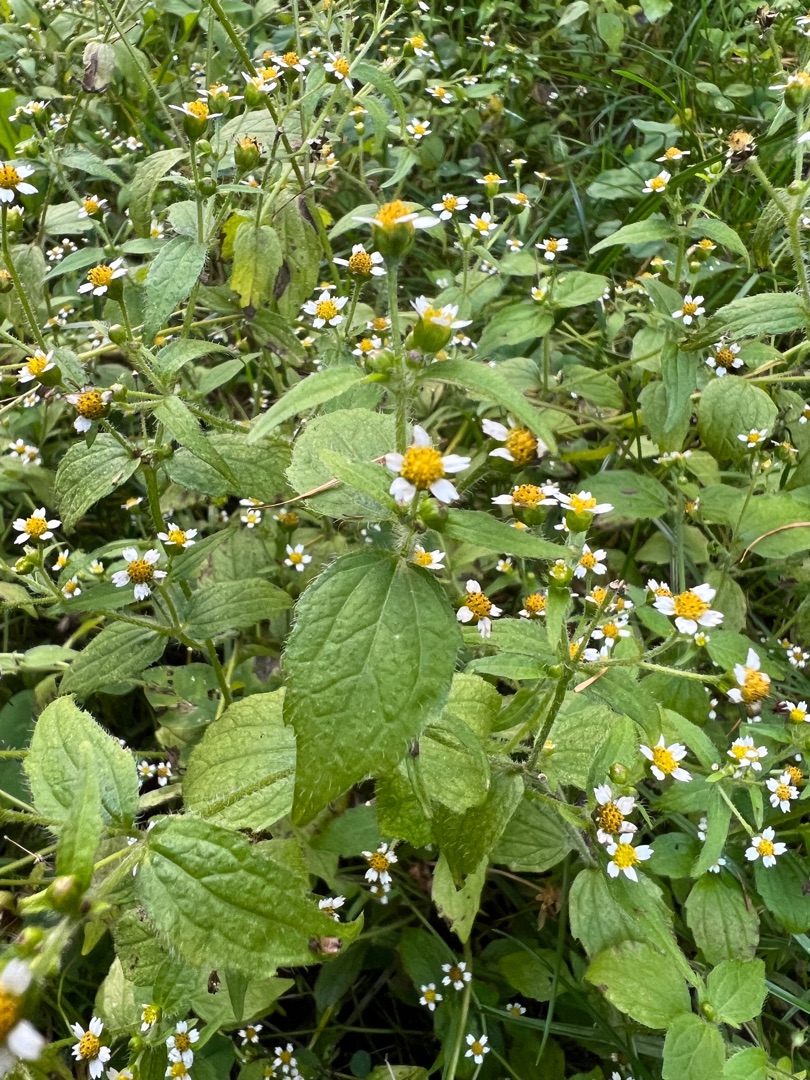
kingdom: Plantae
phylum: Tracheophyta
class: Magnoliopsida
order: Asterales
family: Asteraceae
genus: Galinsoga
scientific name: Galinsoga quadriradiata
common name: Kirtel-kortstråle
